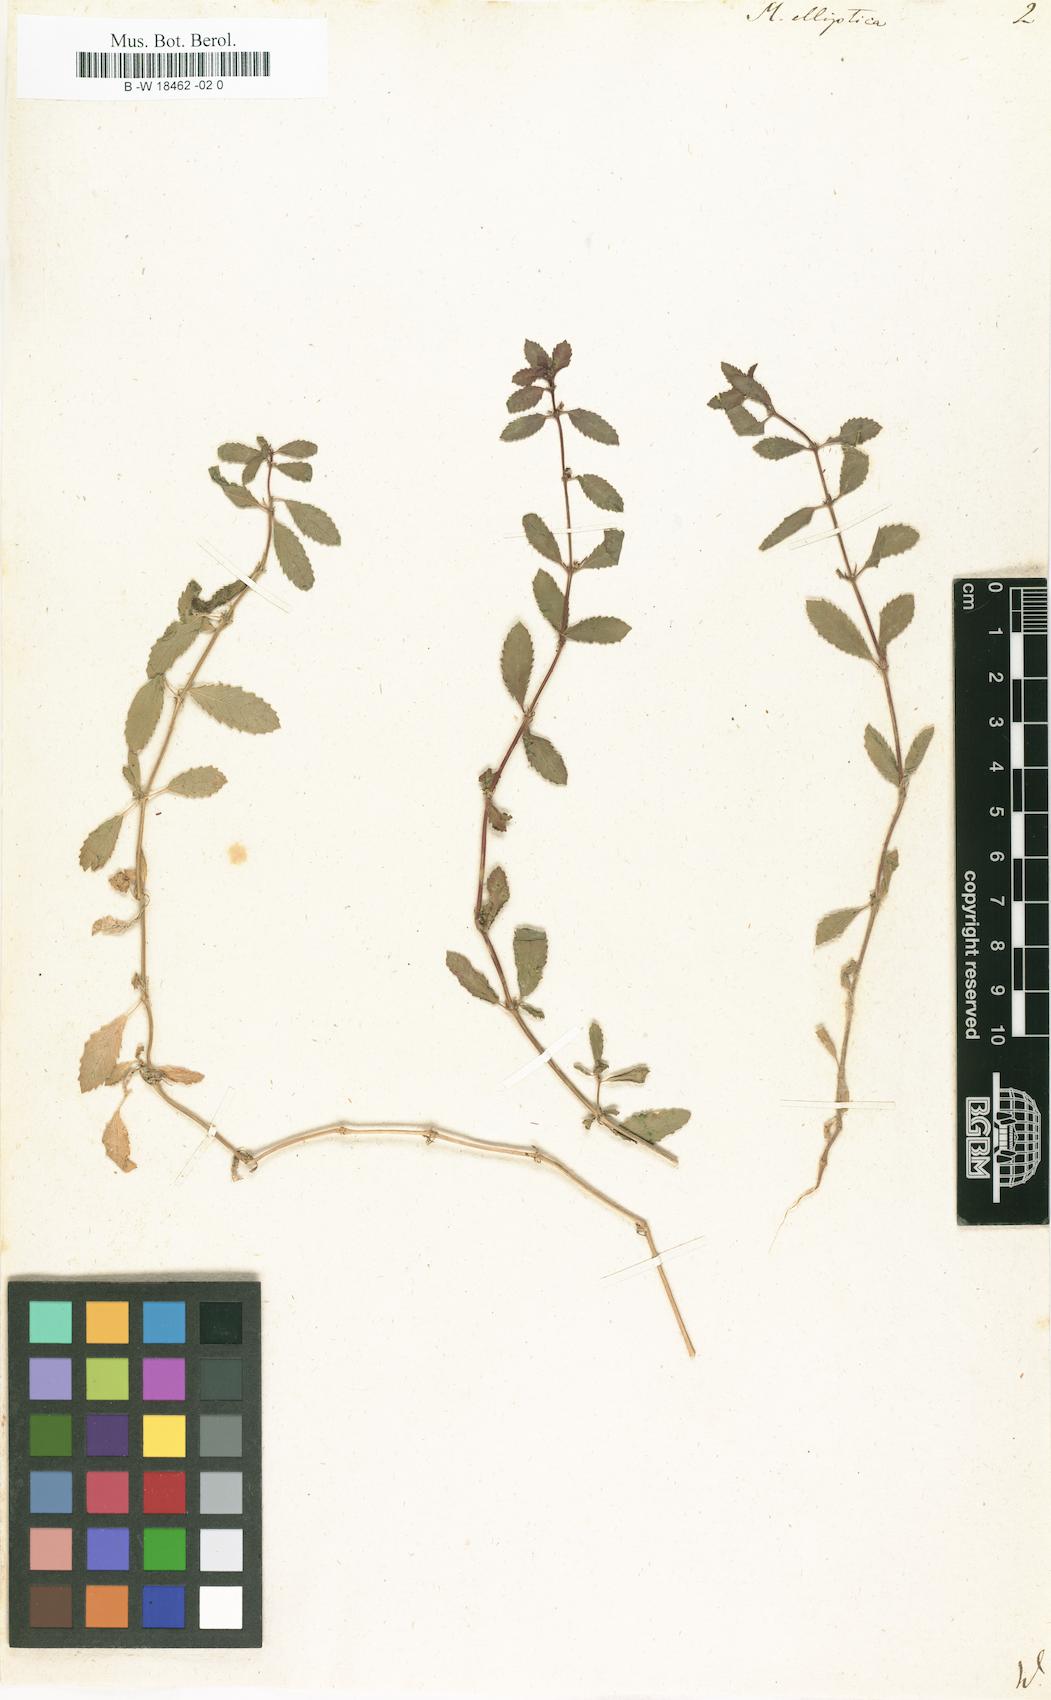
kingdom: Plantae
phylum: Tracheophyta
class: Magnoliopsida
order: Malpighiales
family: Euphorbiaceae
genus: Mercurialis
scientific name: Mercurialis corsica
